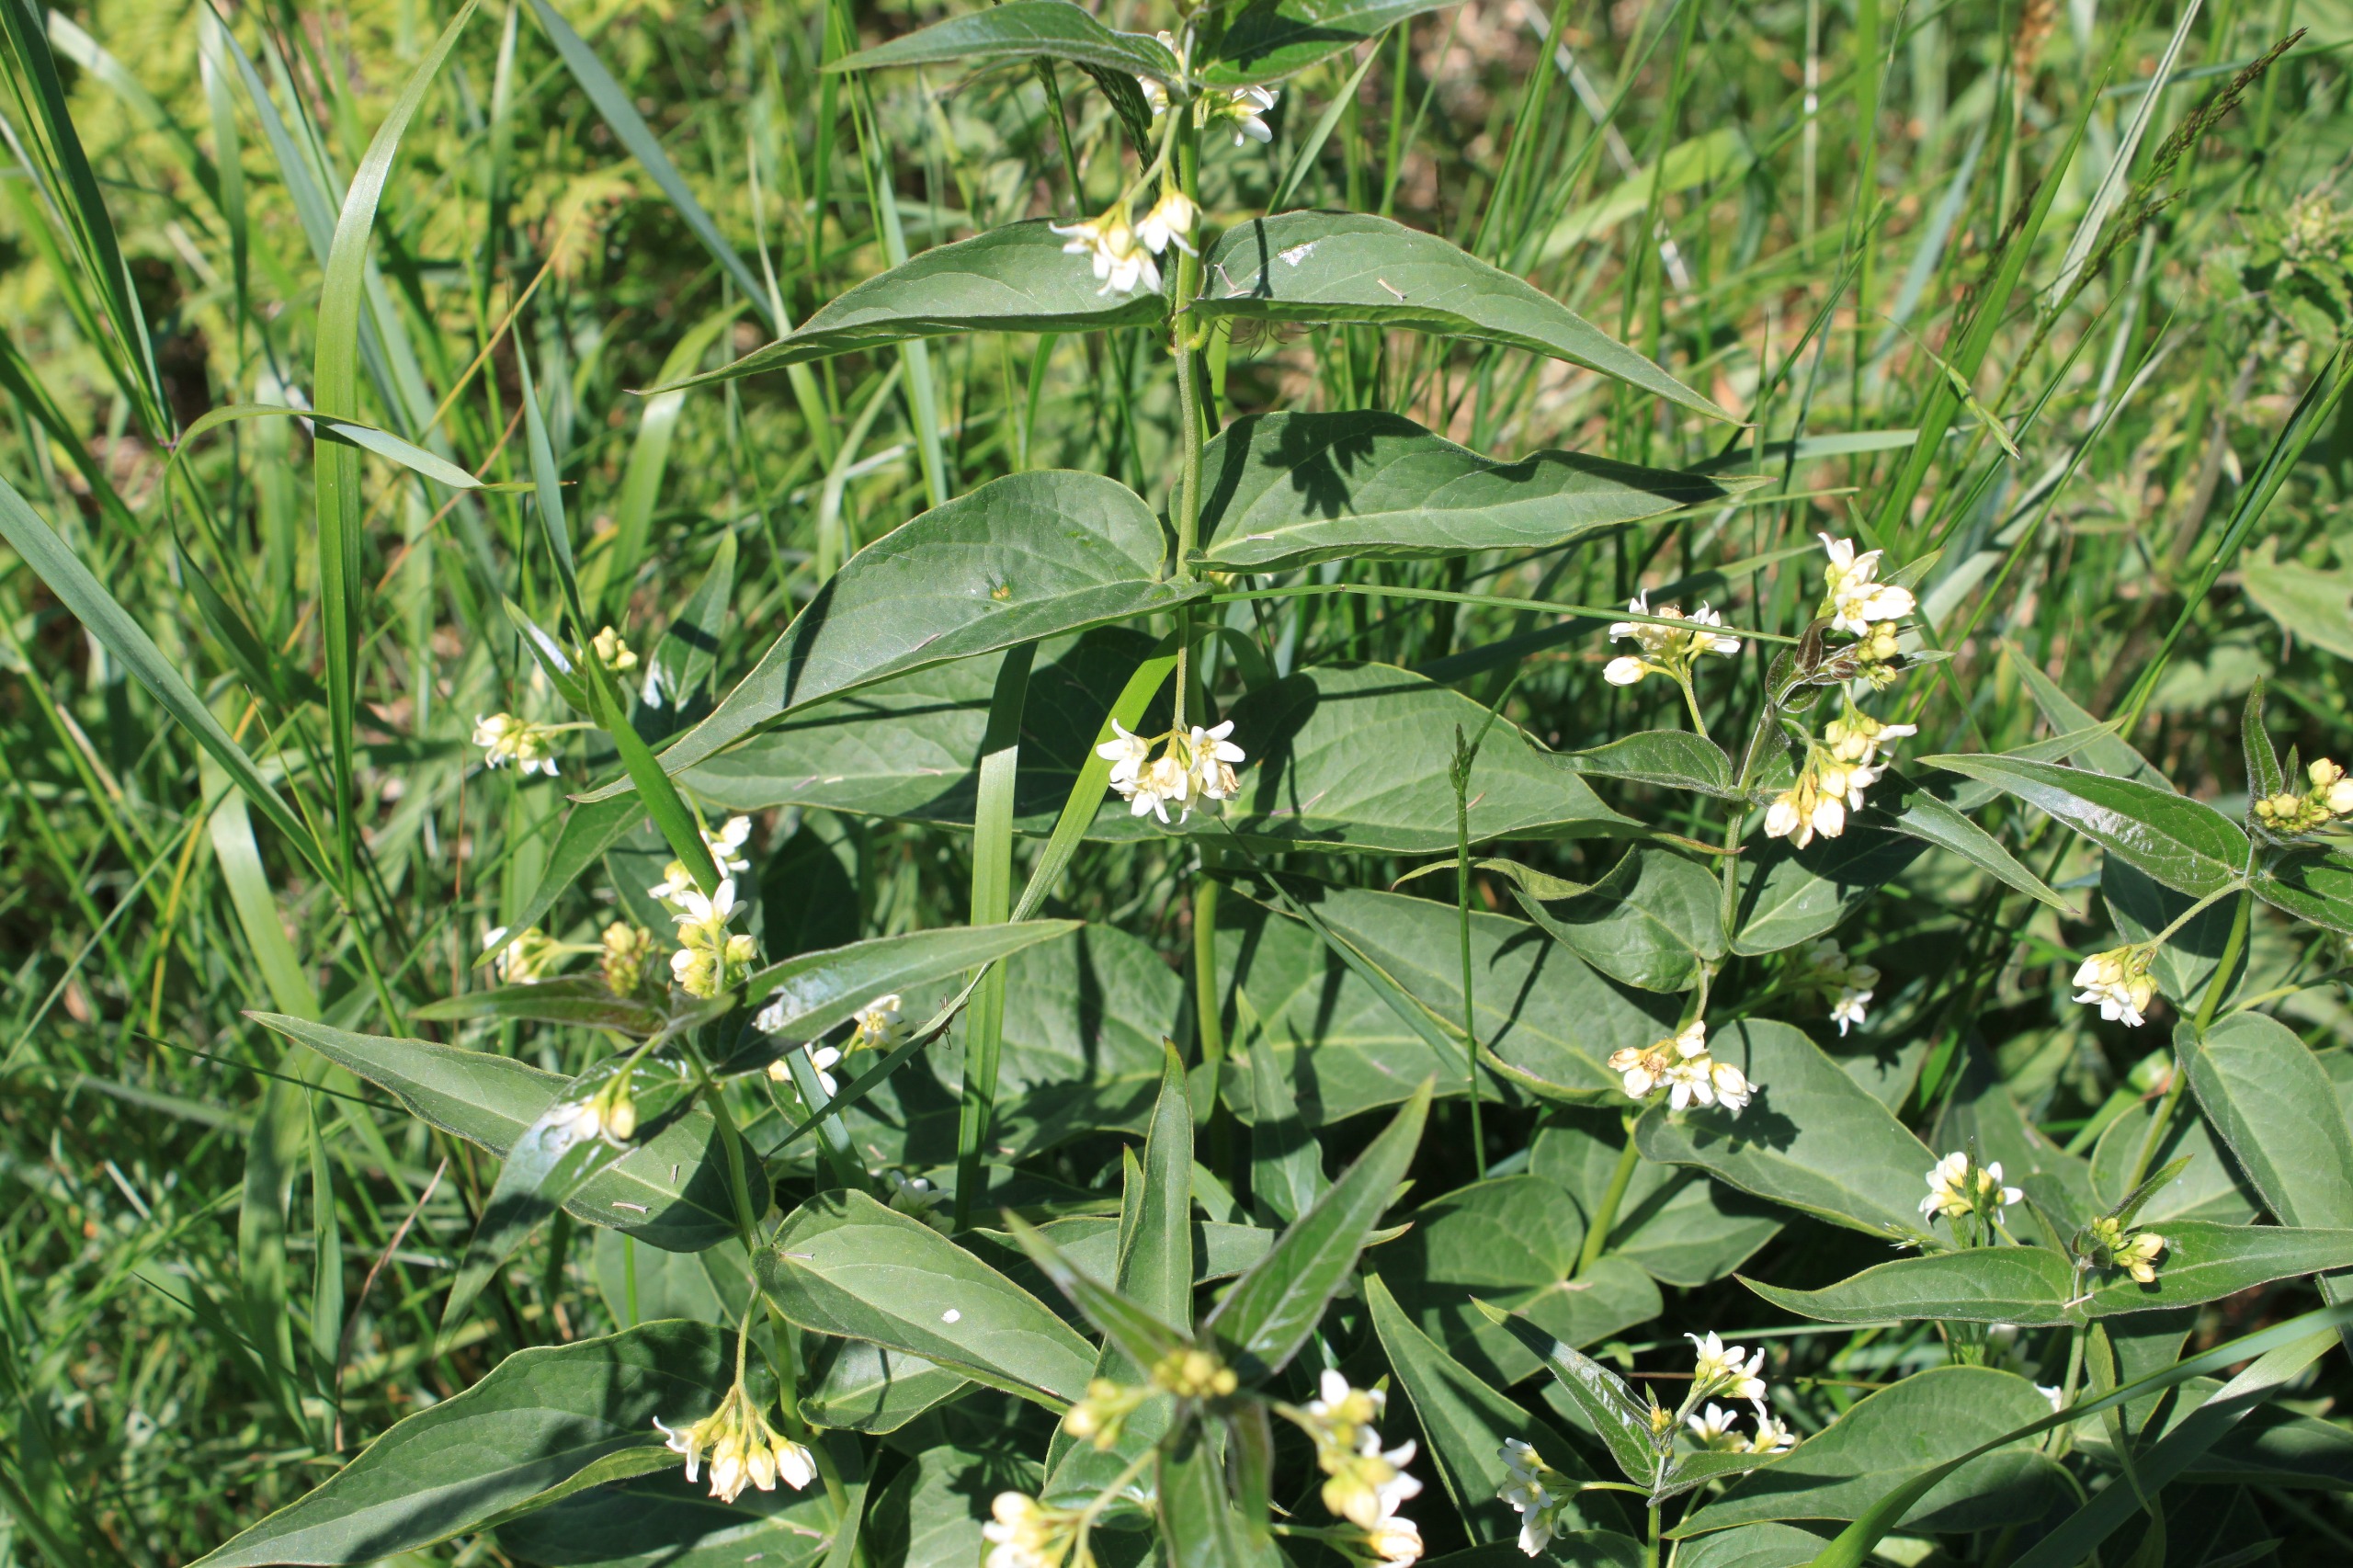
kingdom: Plantae
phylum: Tracheophyta
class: Magnoliopsida
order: Gentianales
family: Apocynaceae
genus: Vincetoxicum
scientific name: Vincetoxicum hirundinaria
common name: Svalerod
